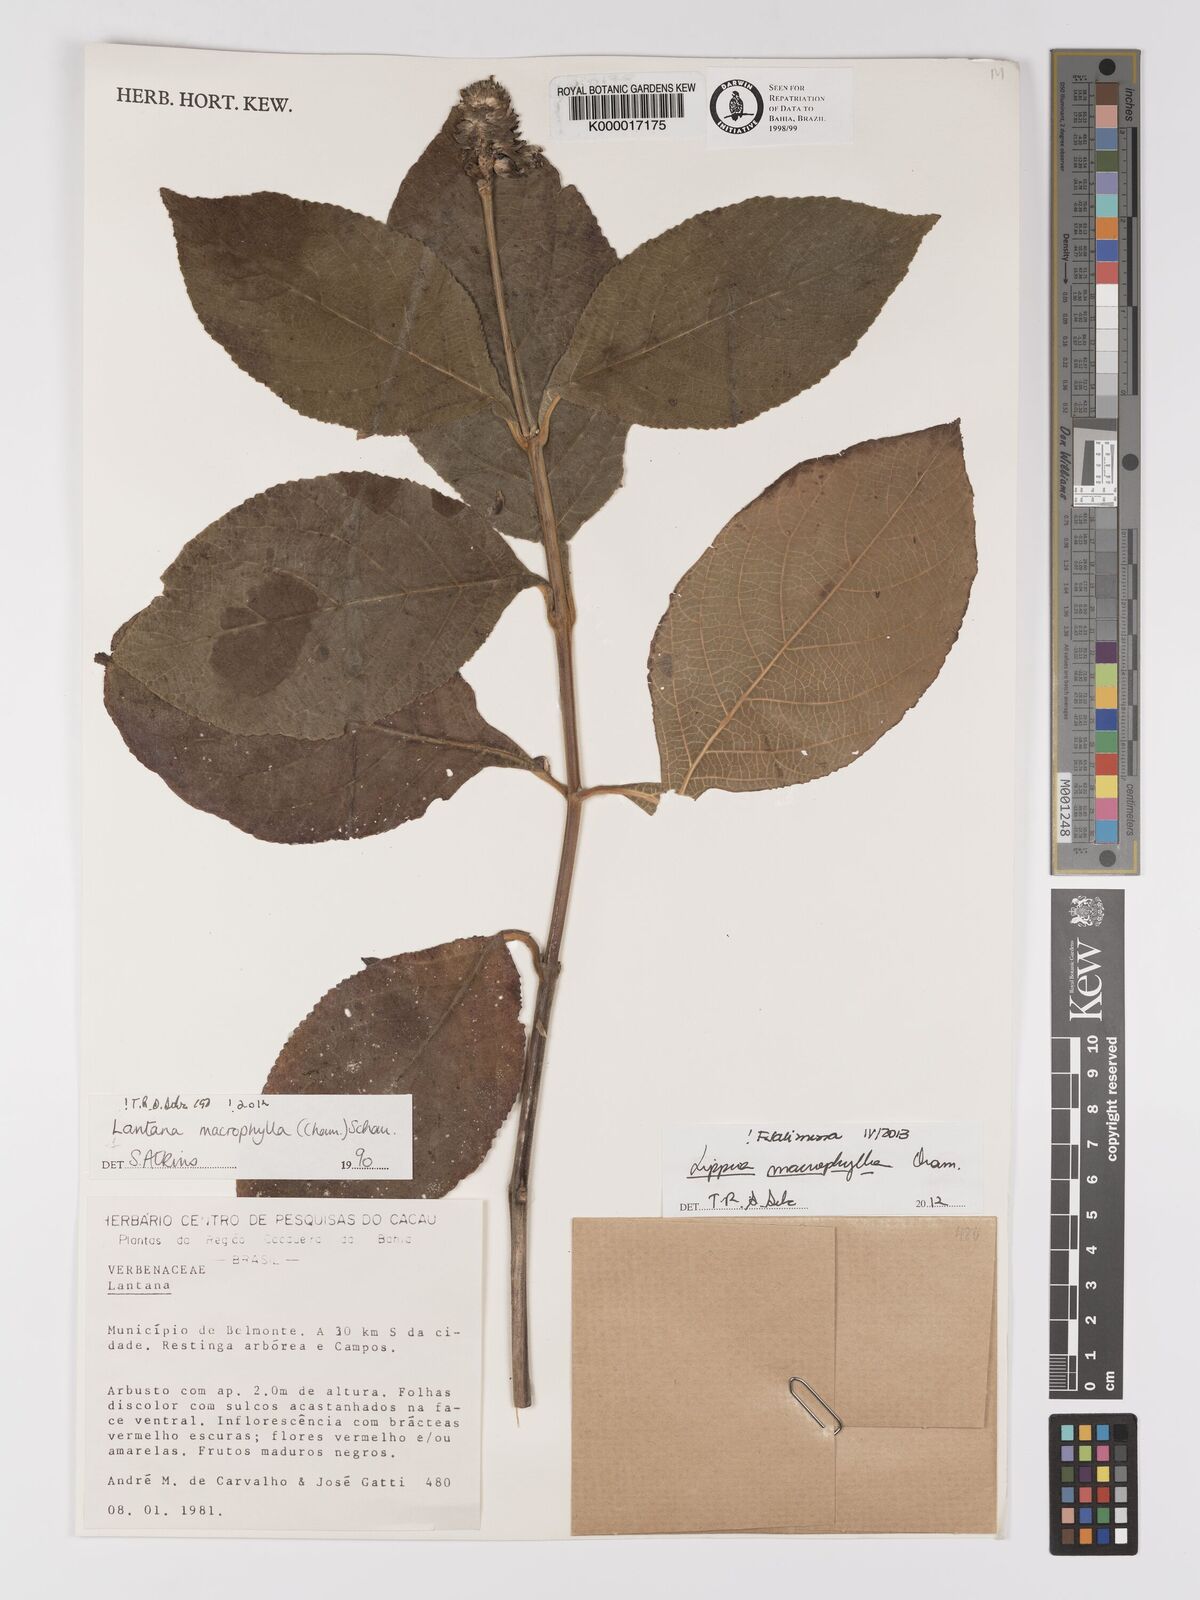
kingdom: Plantae
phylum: Tracheophyta
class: Magnoliopsida
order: Lamiales
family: Verbenaceae
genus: Lippia
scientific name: Lippia macrophylla
